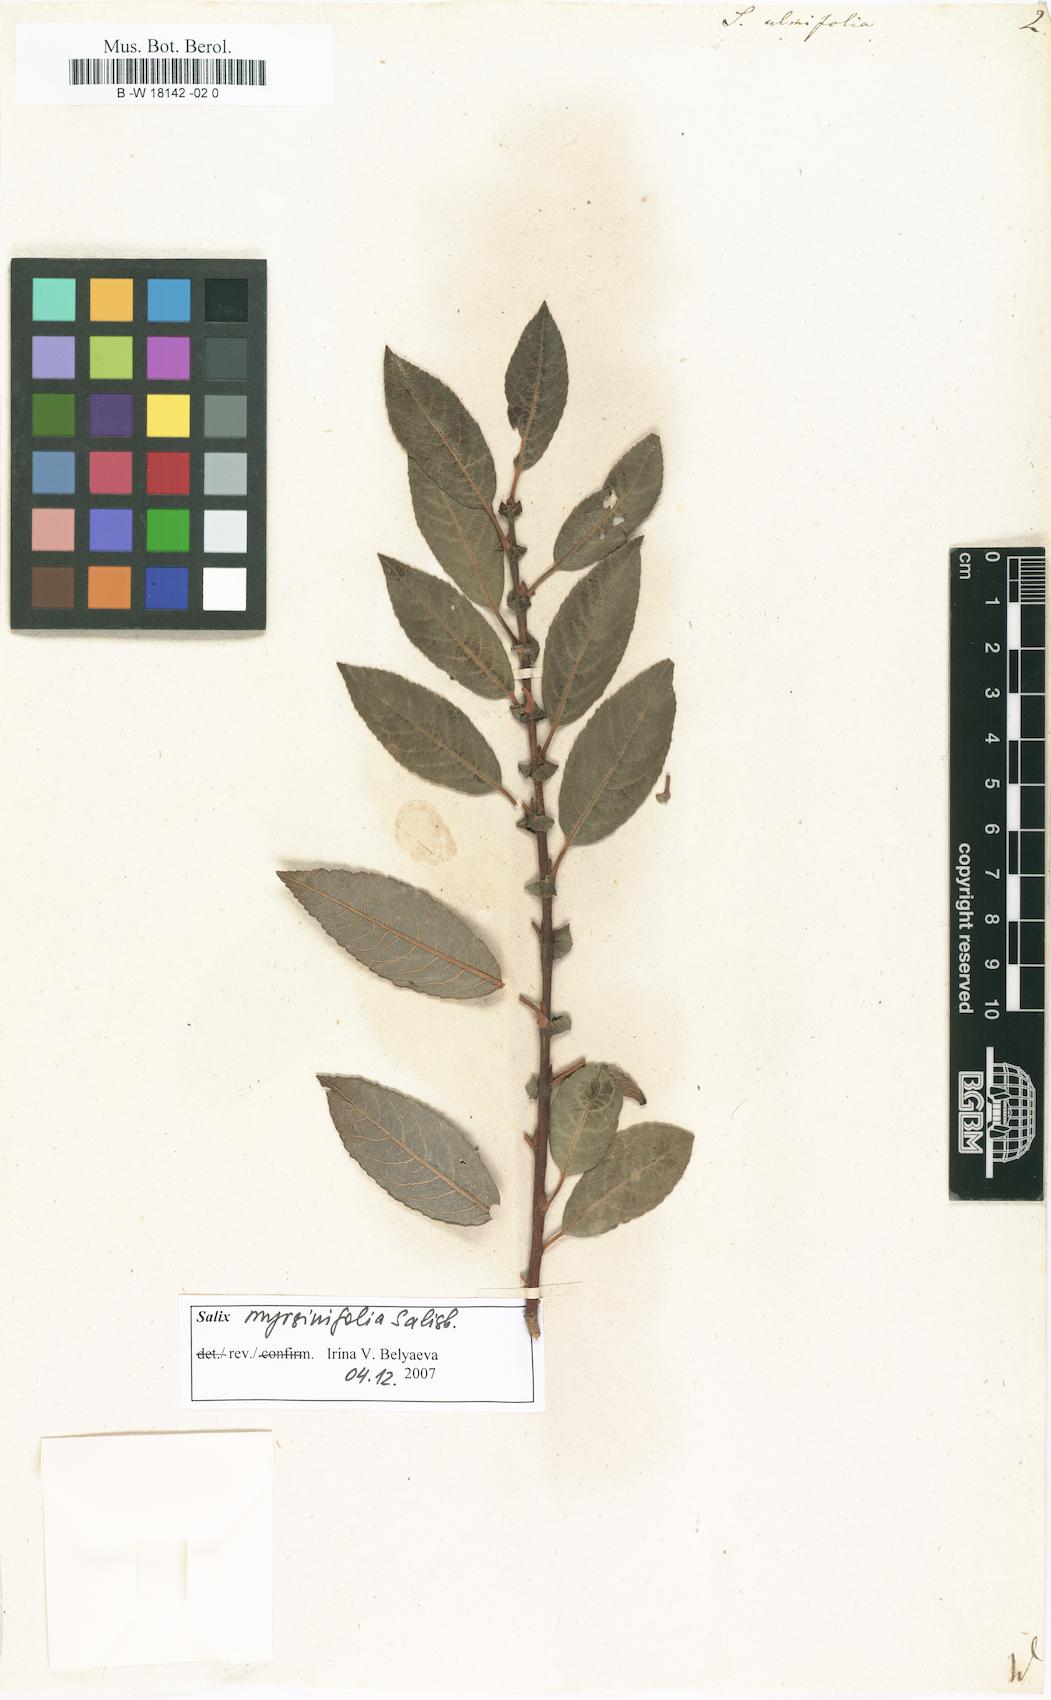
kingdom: Plantae
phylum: Tracheophyta
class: Magnoliopsida
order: Malpighiales
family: Salicaceae
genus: Salix
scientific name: Salix ulmifolia
